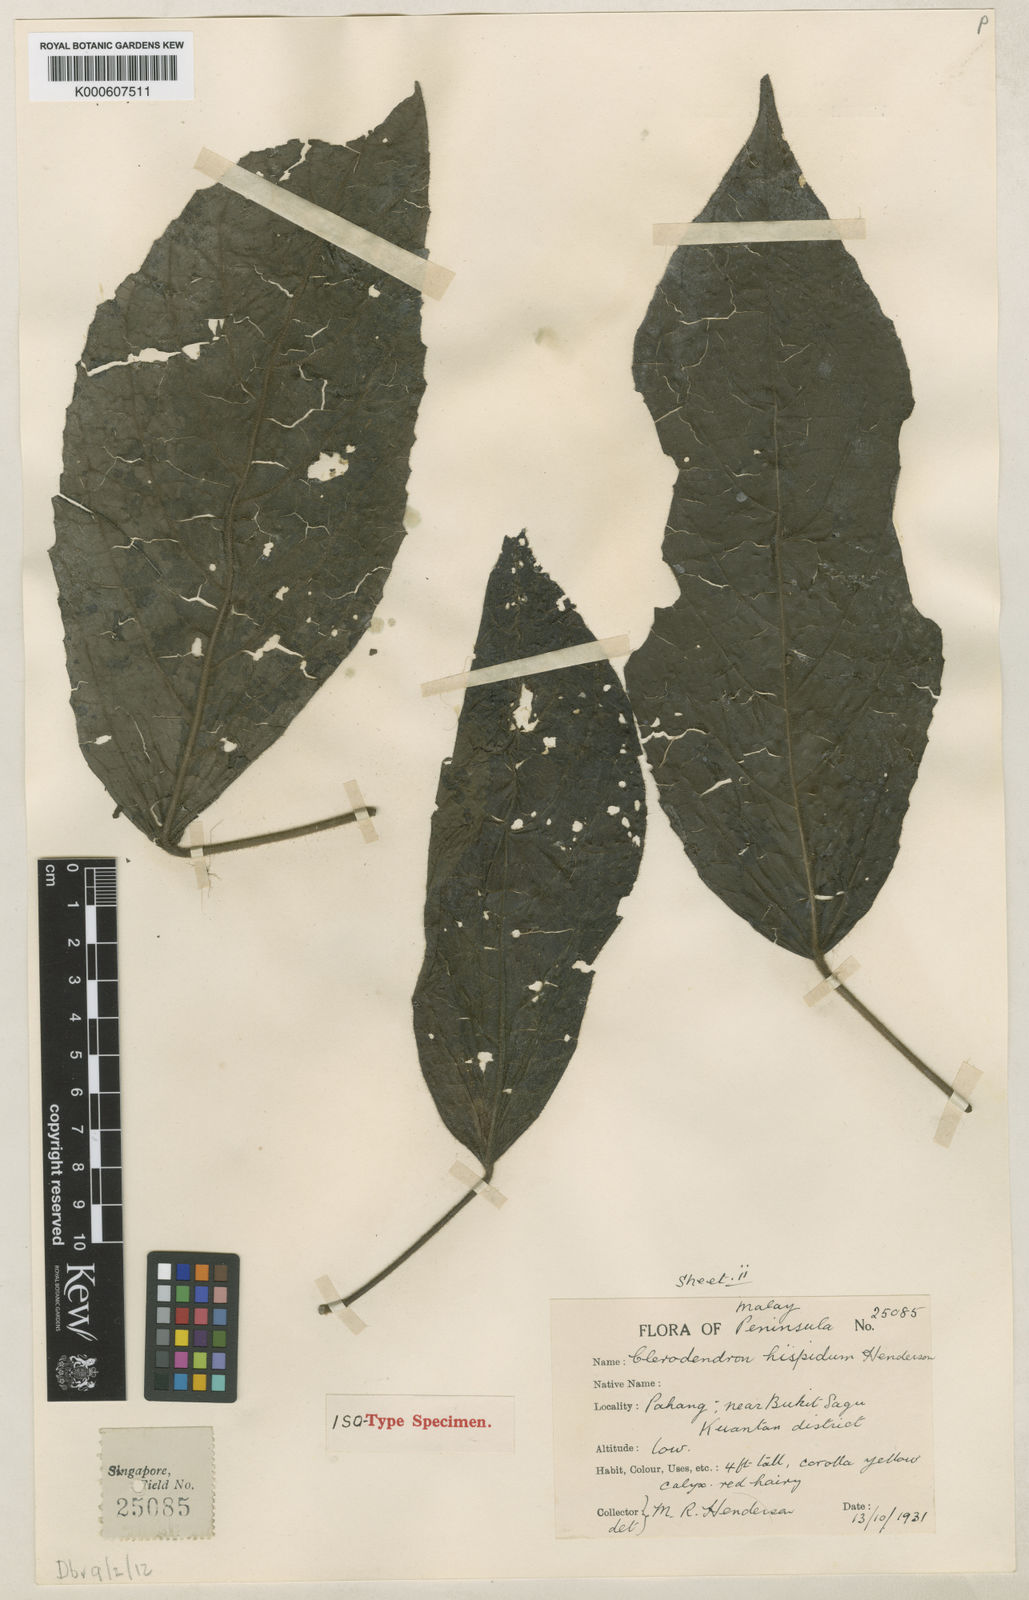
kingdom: Plantae
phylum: Tracheophyta
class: Magnoliopsida
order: Lamiales
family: Lamiaceae
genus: Clerodendrum
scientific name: Clerodendrum haematolasium
